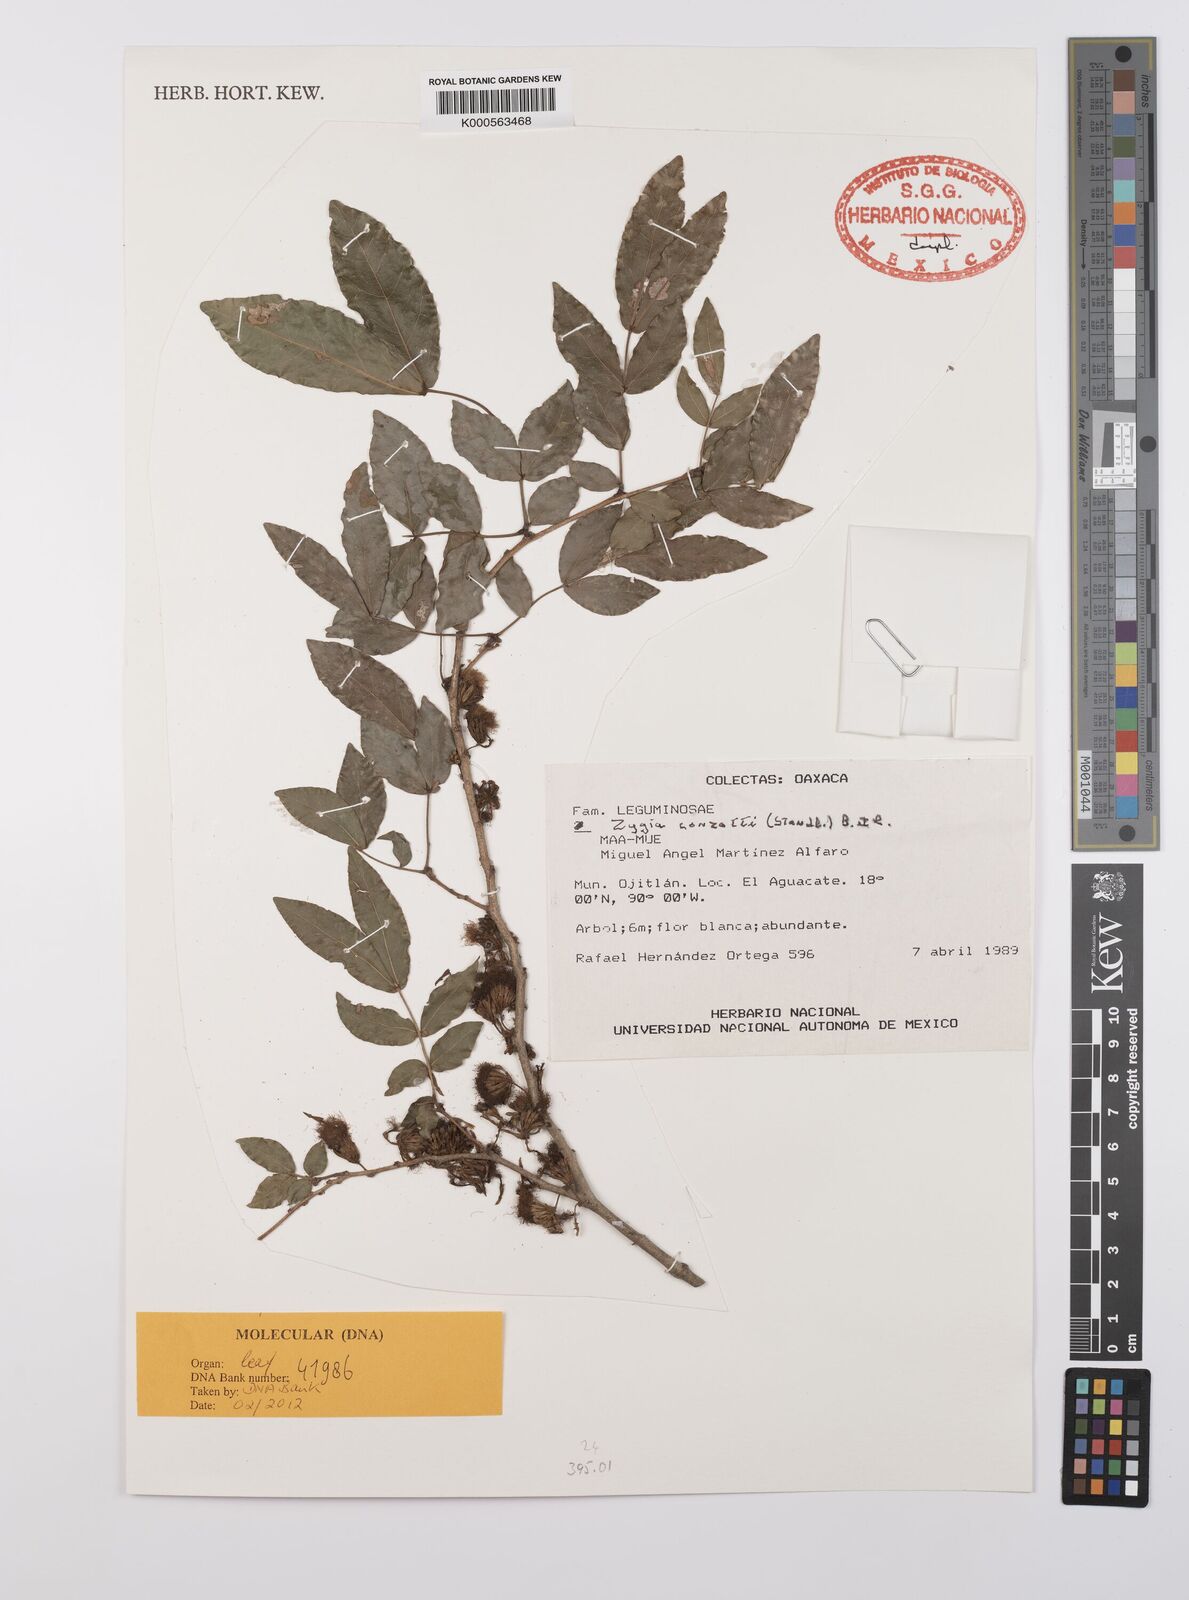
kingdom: Plantae
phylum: Tracheophyta
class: Magnoliopsida
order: Fabales
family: Fabaceae
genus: Zygia
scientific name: Zygia conzattii
